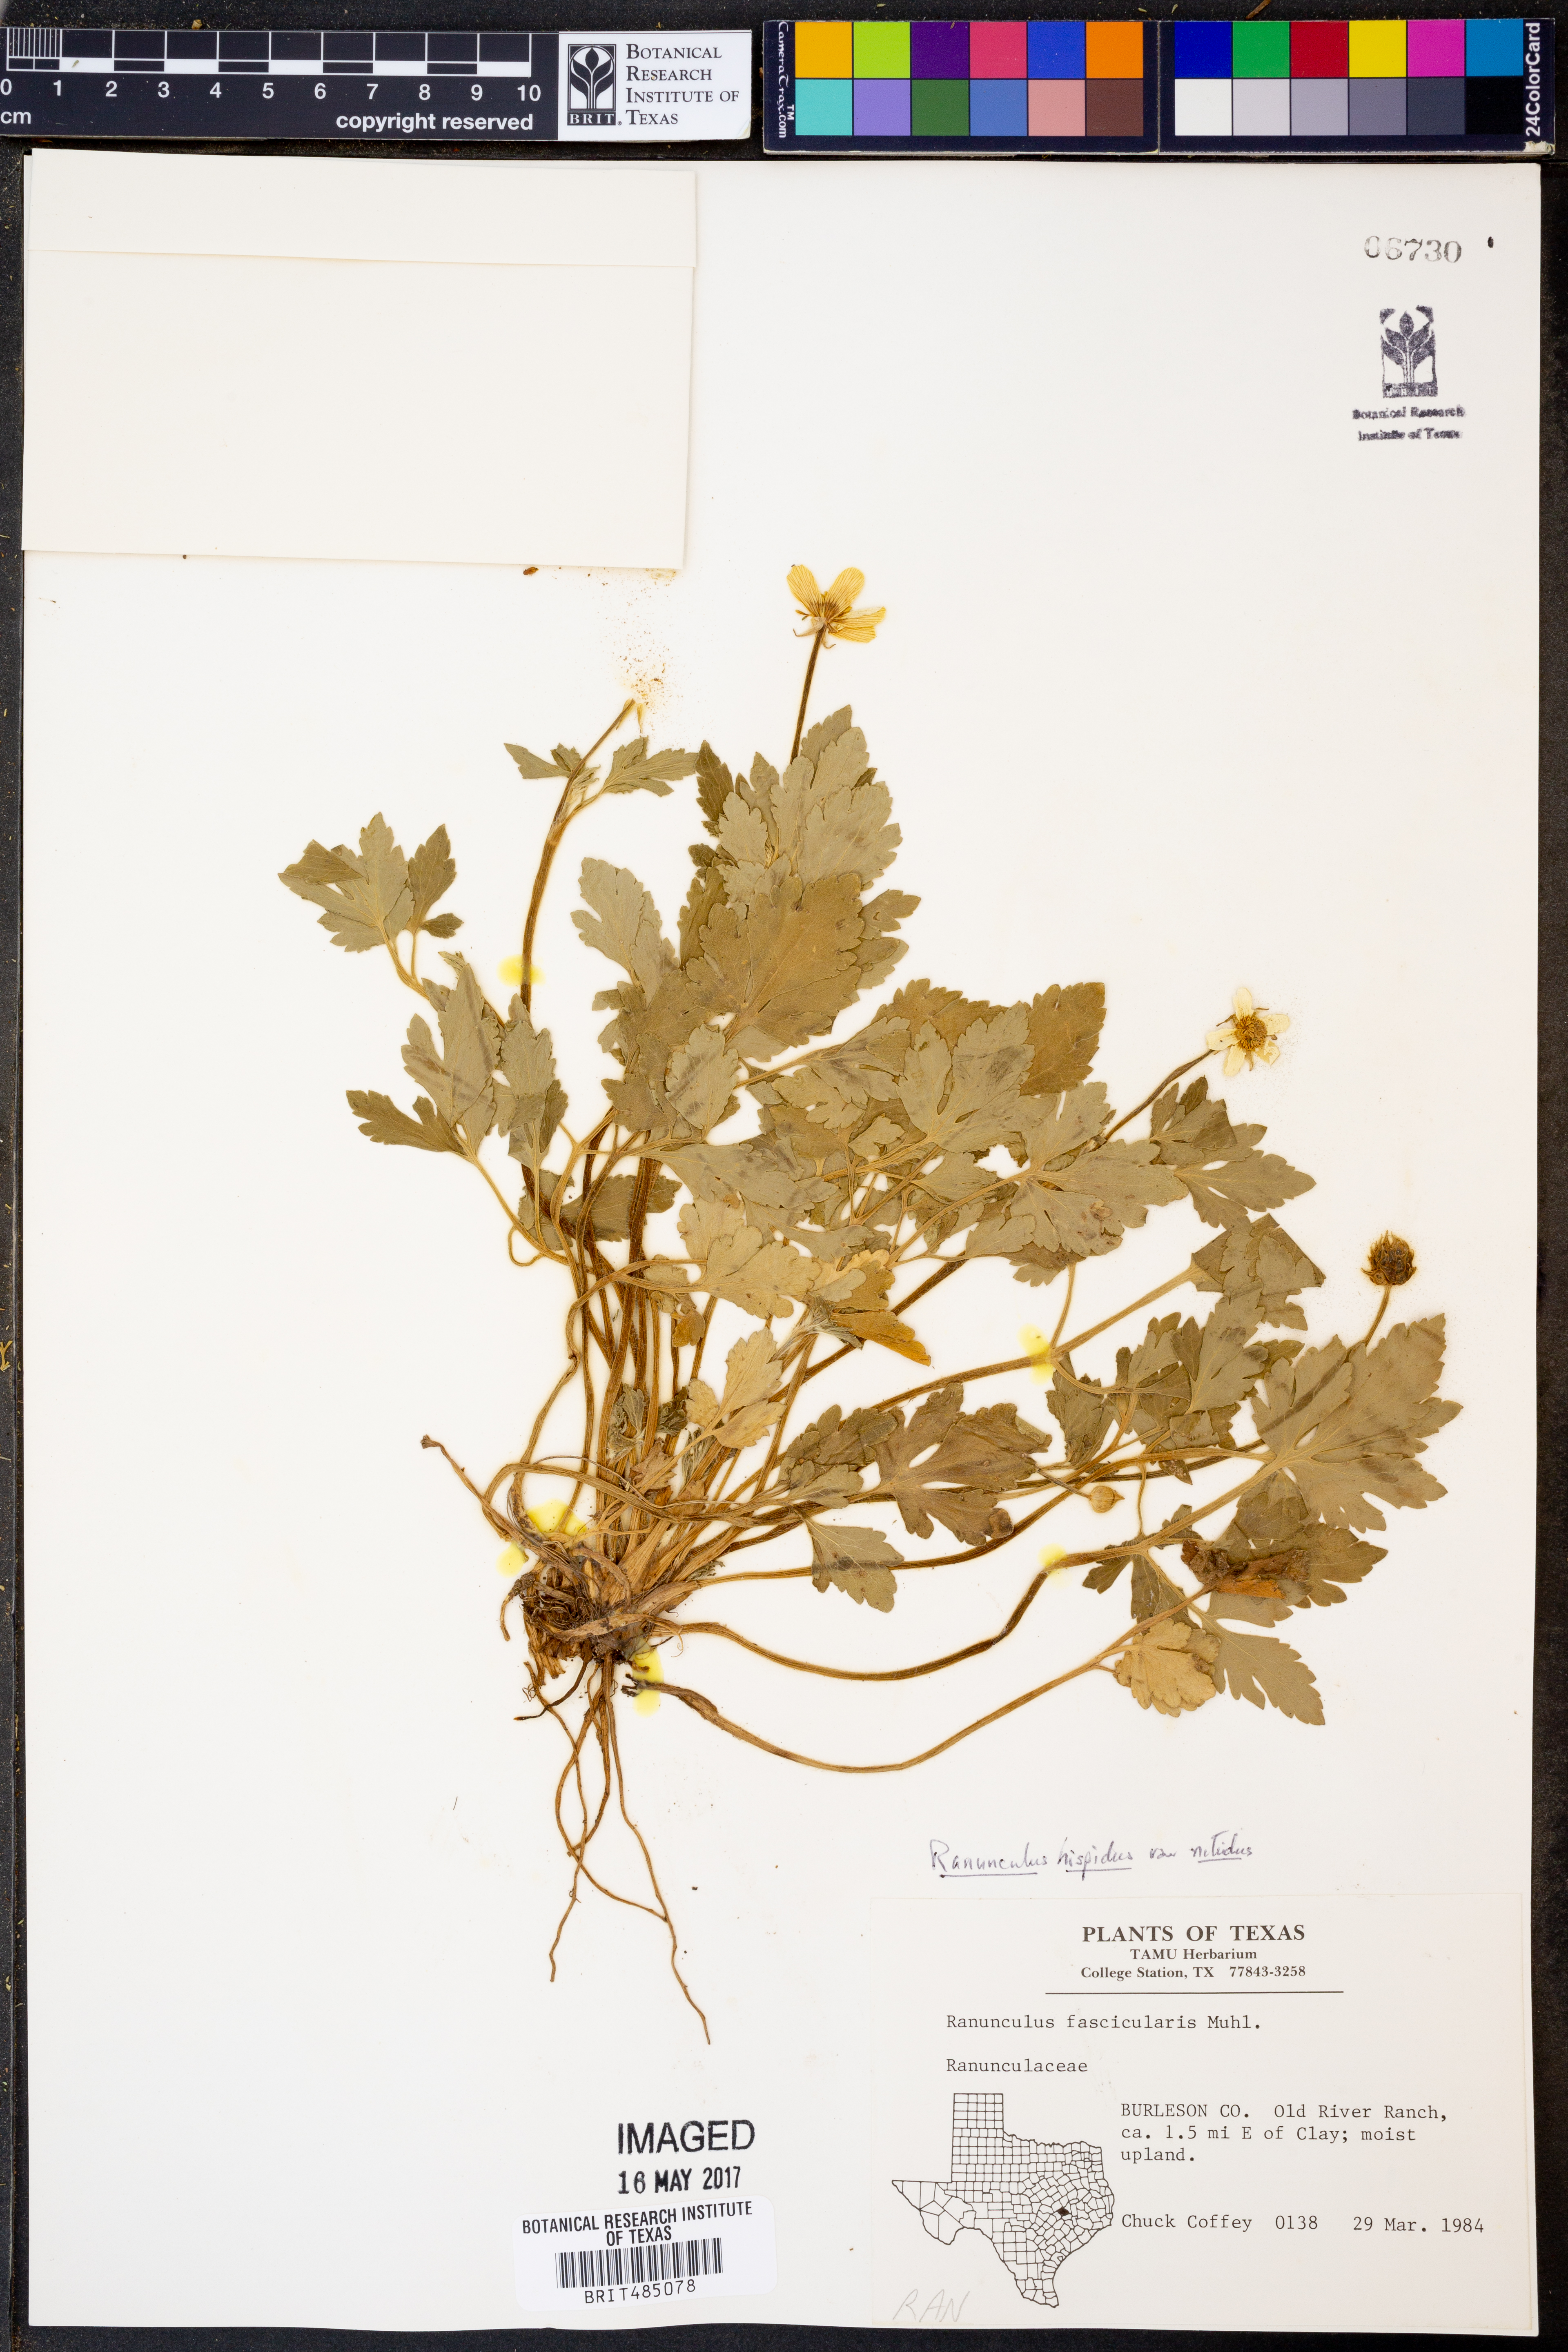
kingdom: Plantae
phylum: Tracheophyta
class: Magnoliopsida
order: Ranunculales
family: Ranunculaceae
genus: Ranunculus
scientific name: Ranunculus hispidus
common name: Bristly buttercup
